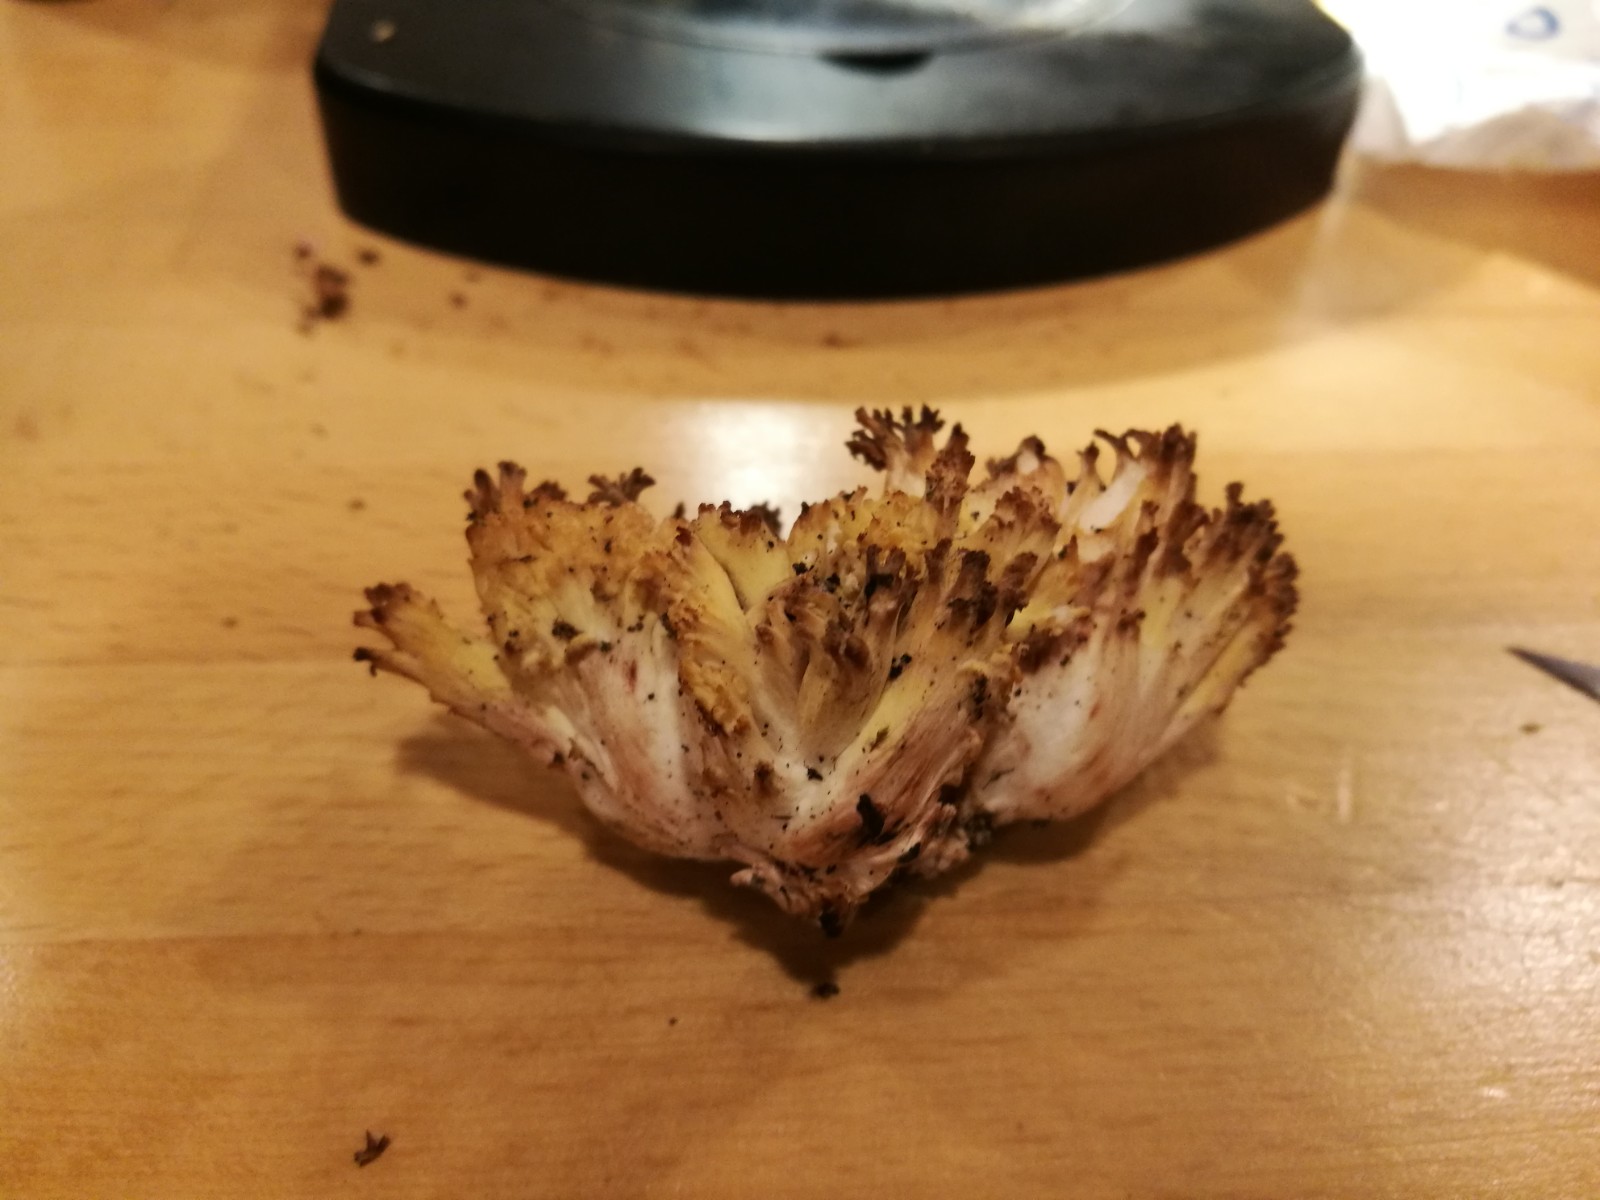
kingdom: Fungi
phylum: Basidiomycota
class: Agaricomycetes
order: Gomphales
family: Gomphaceae
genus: Ramaria
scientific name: Ramaria sanguinea
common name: blodplettet koralsvamp
